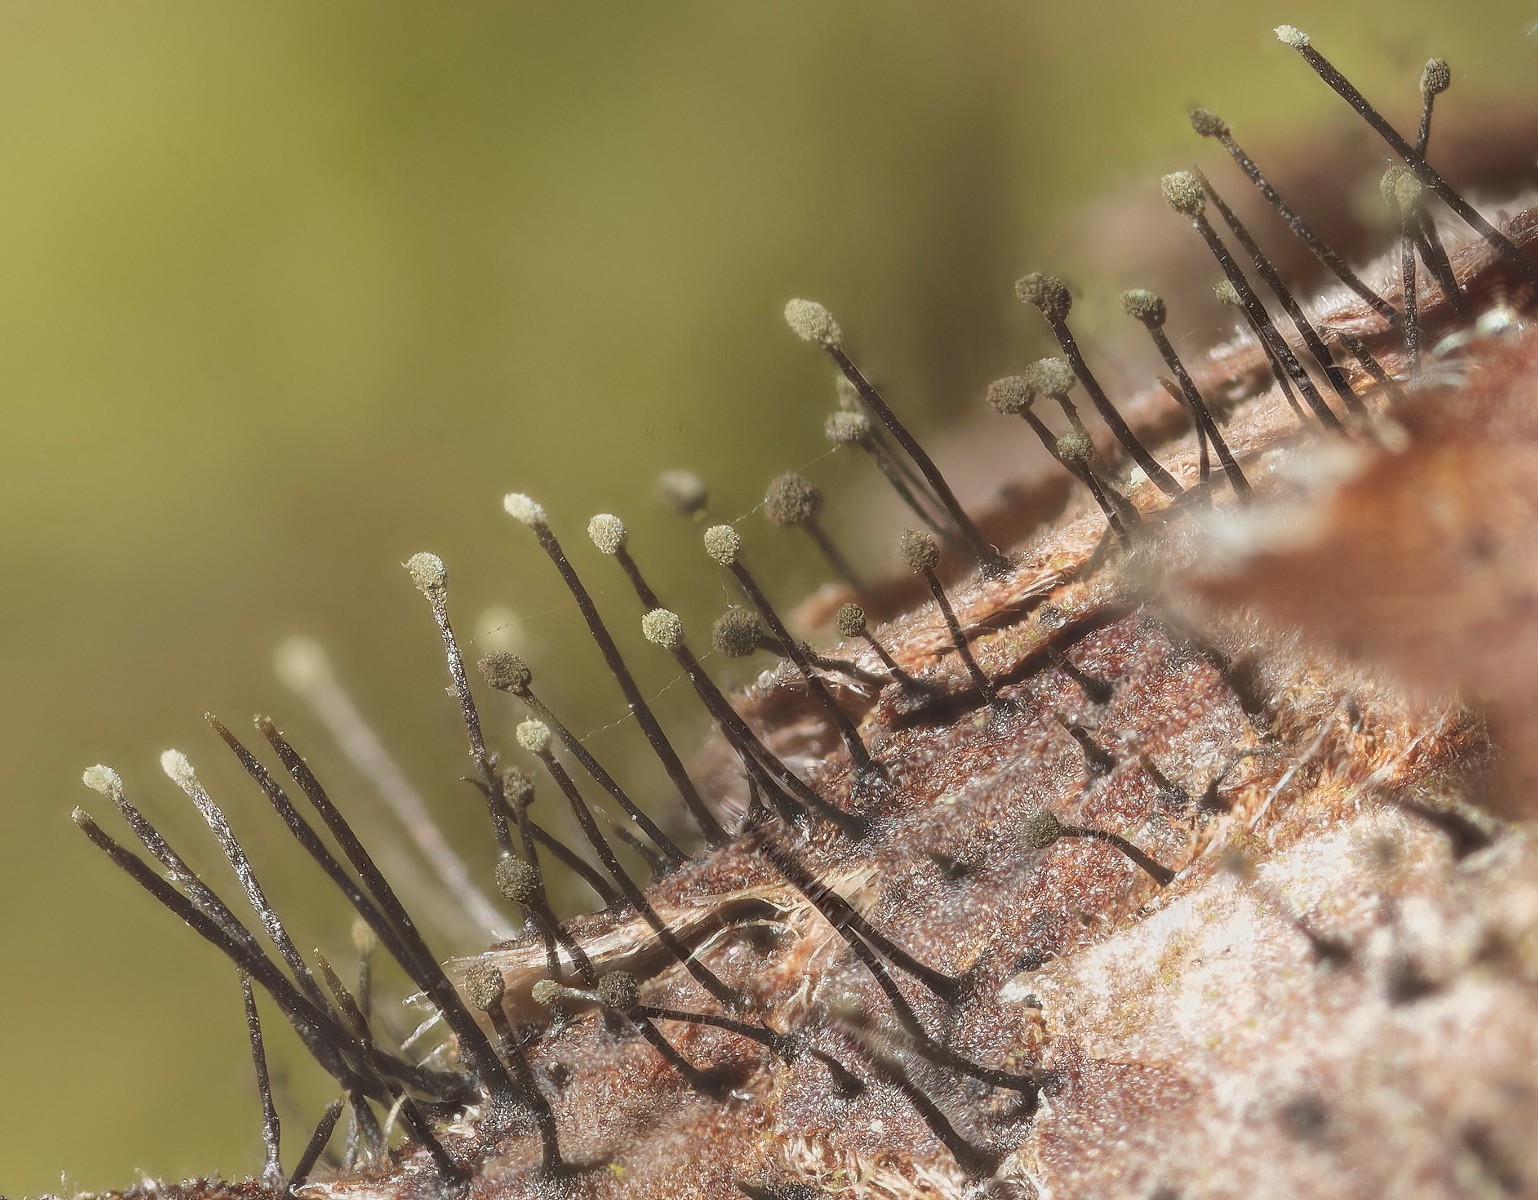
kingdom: Fungi
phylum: Ascomycota
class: Dothideomycetes
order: Pleosporales
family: Melanommataceae
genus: Seifertia
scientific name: Seifertia azaleae
